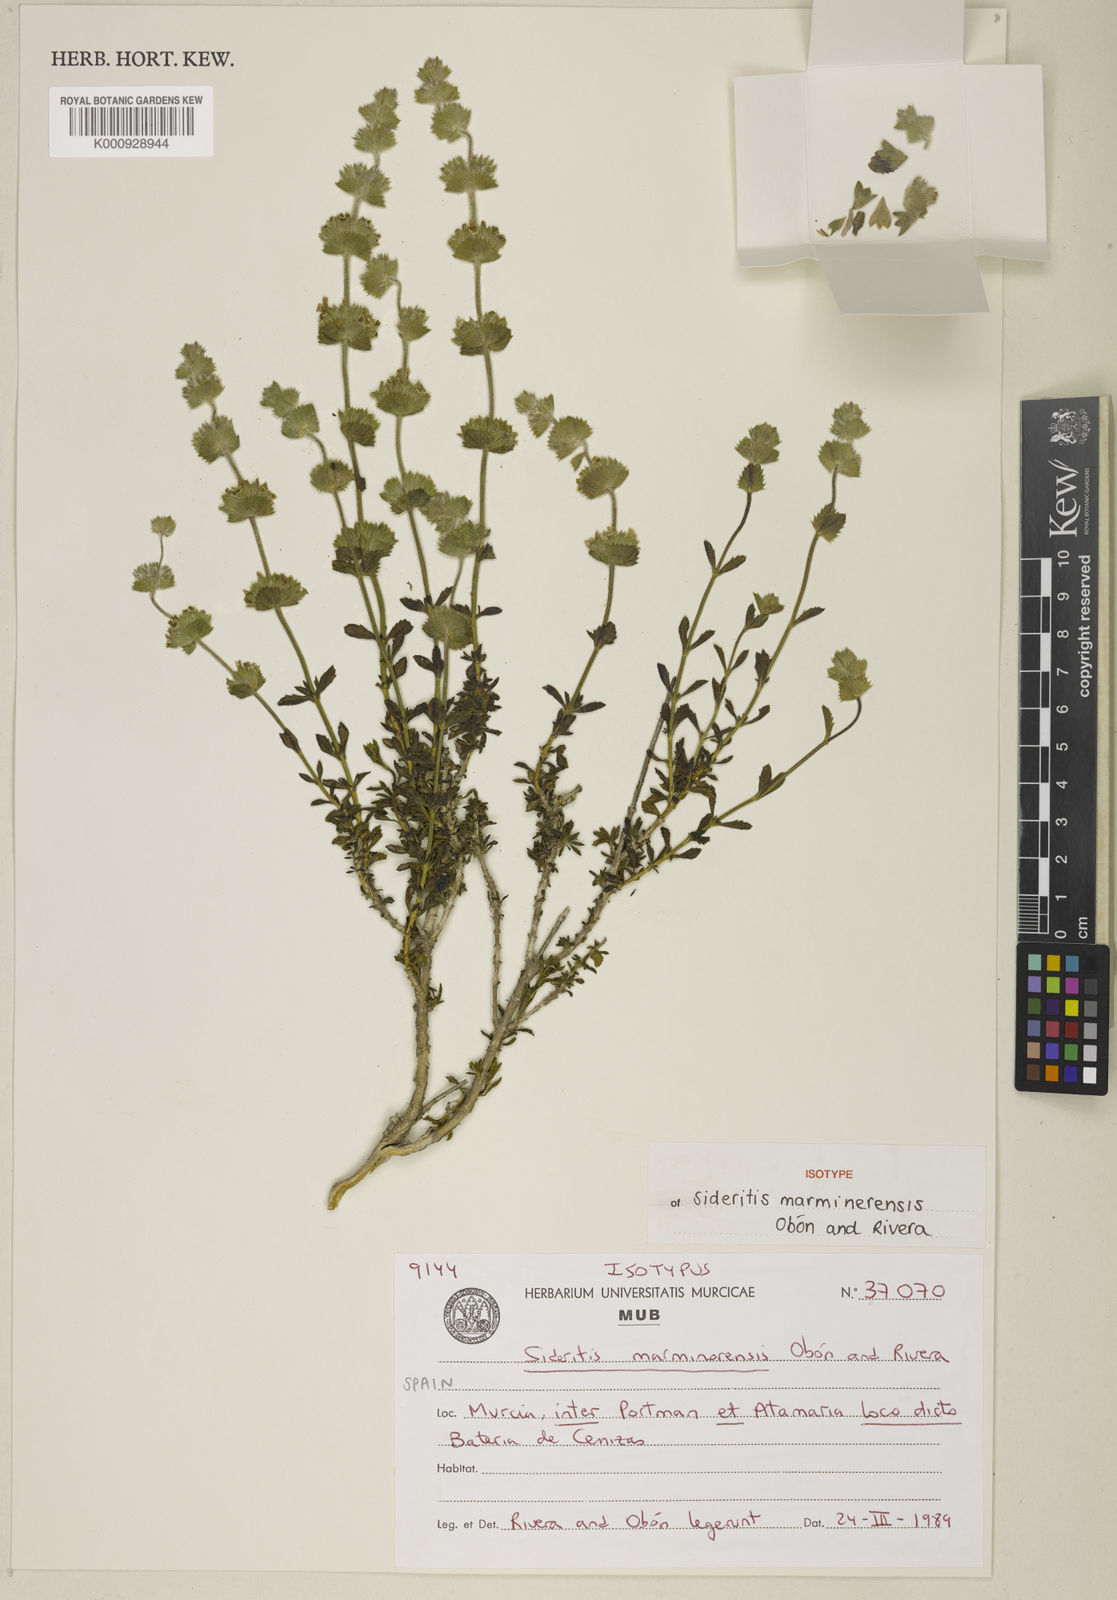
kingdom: Plantae
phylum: Tracheophyta
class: Magnoliopsida
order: Lamiales
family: Lamiaceae
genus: Sideritis
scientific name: Sideritis
